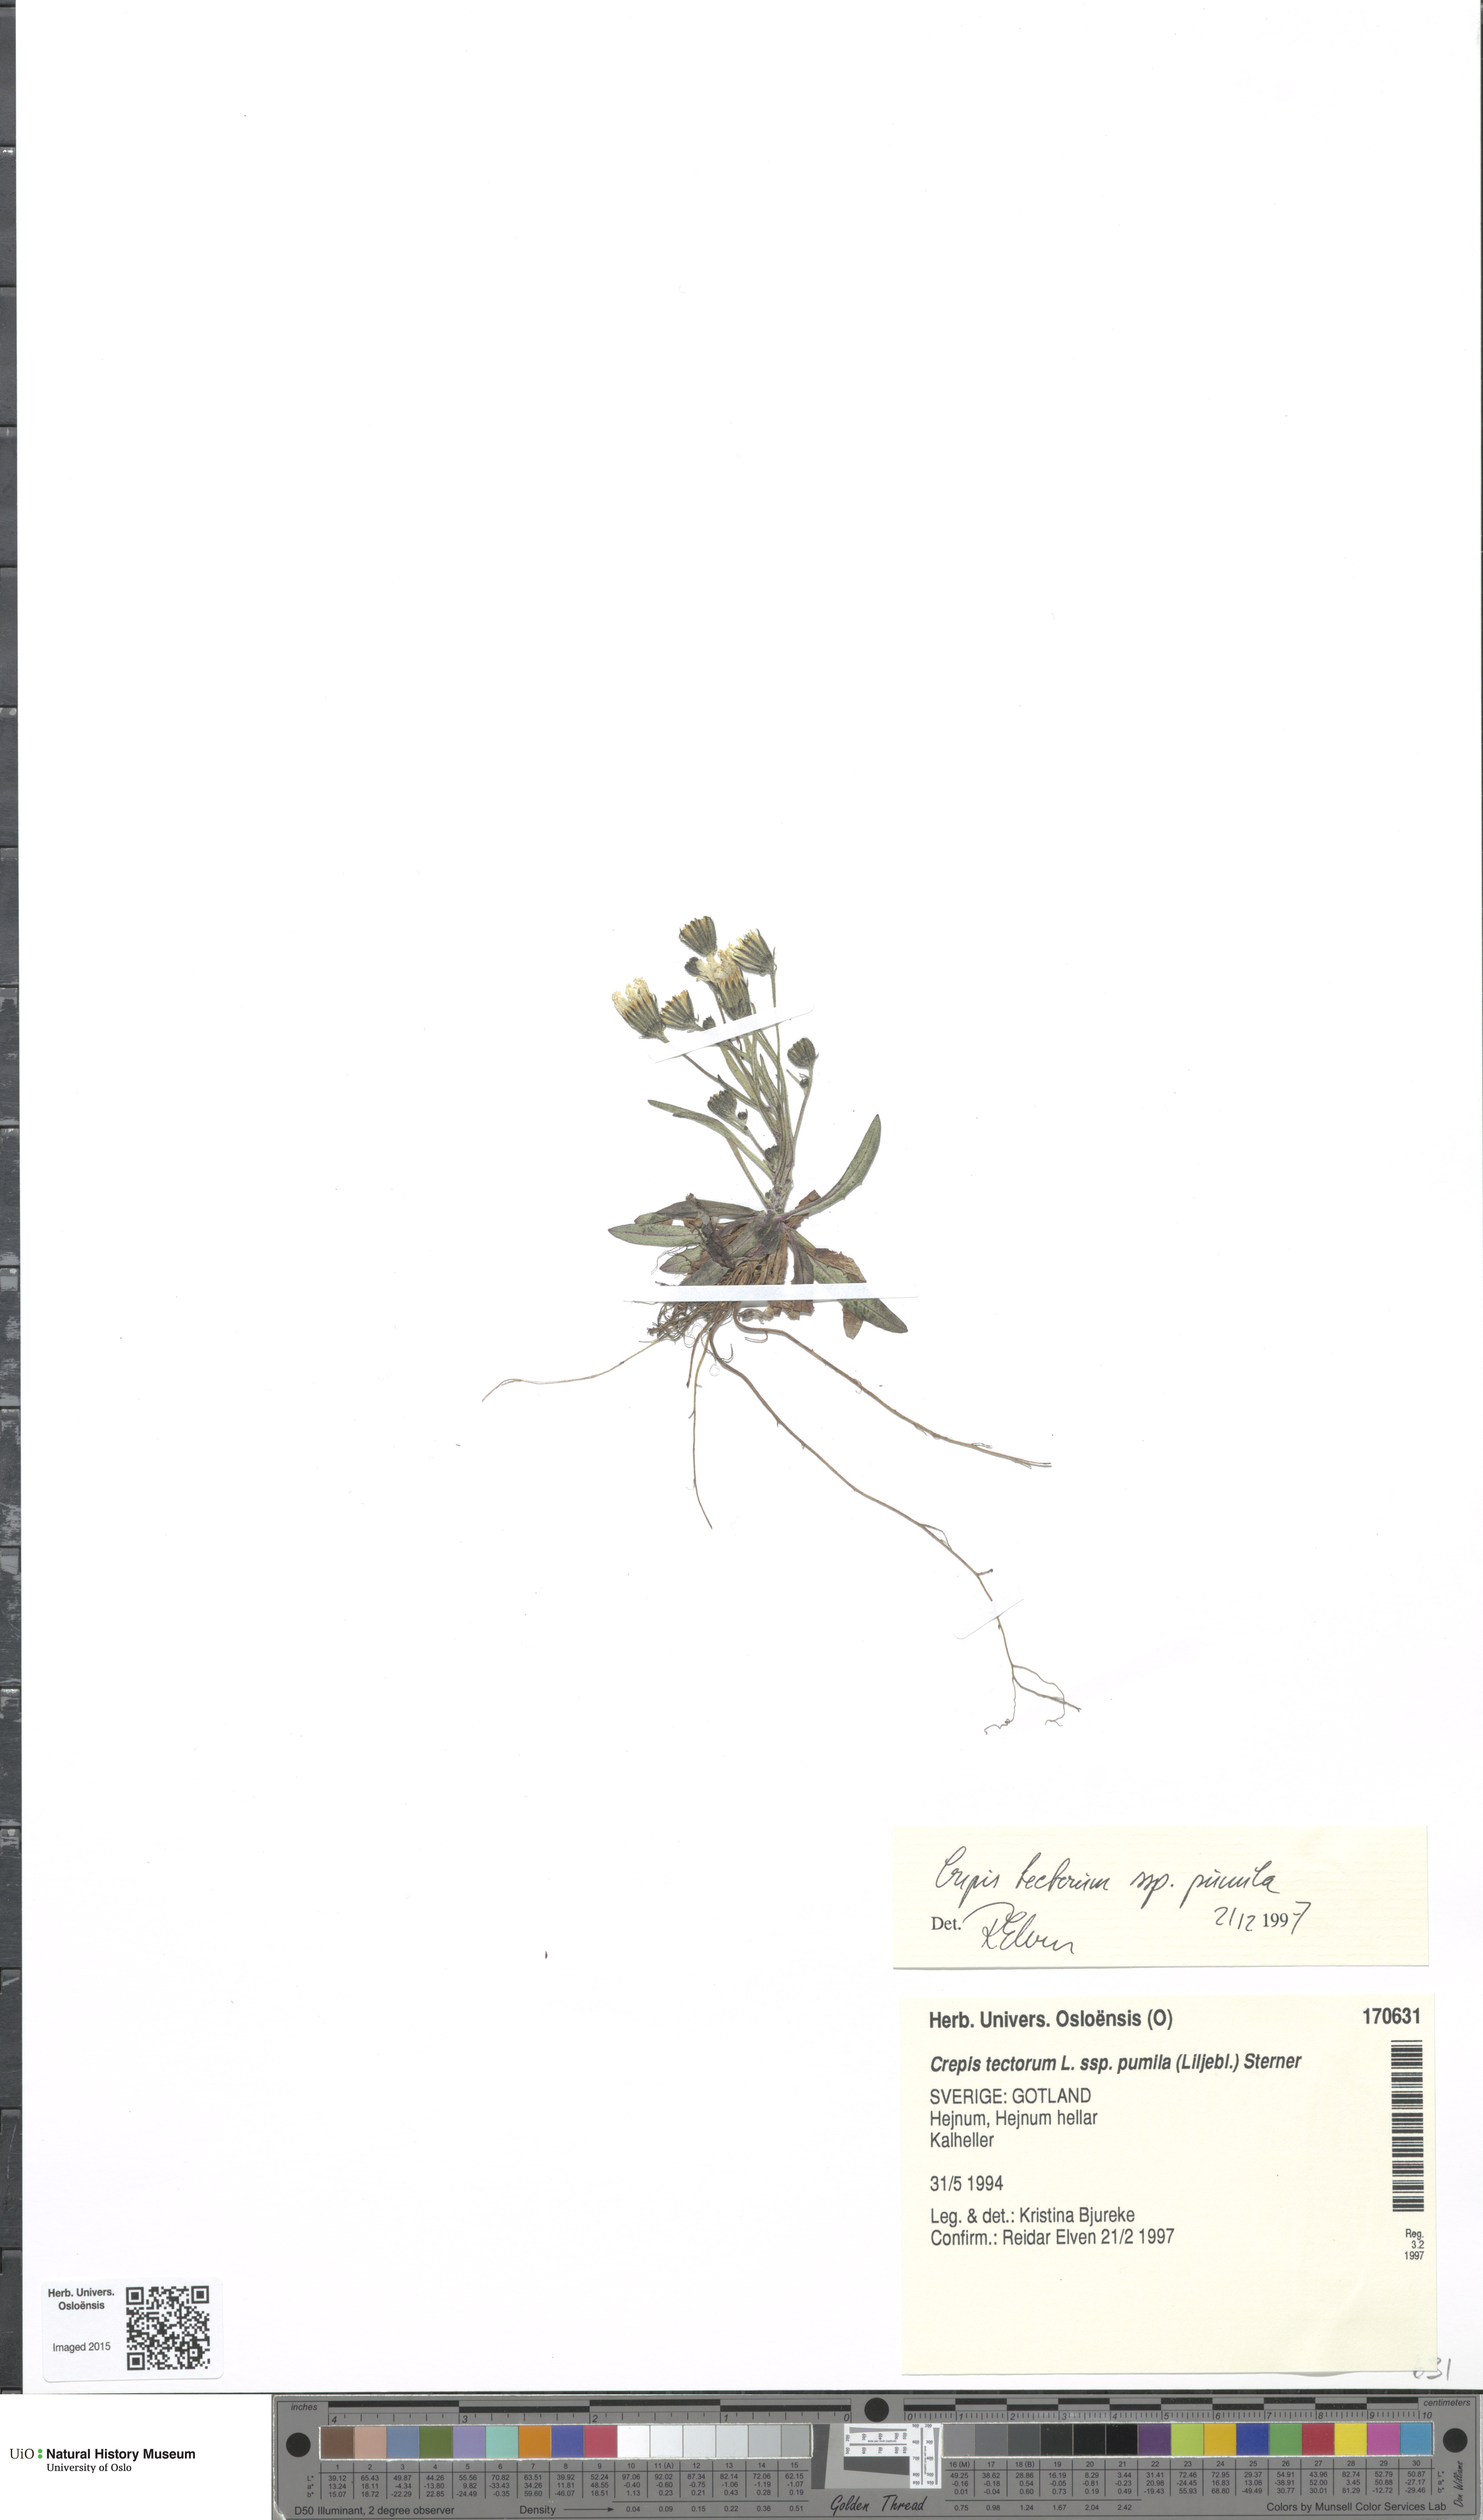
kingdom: Plantae
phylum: Tracheophyta
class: Magnoliopsida
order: Asterales
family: Asteraceae
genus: Crepis
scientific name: Crepis foliosa
